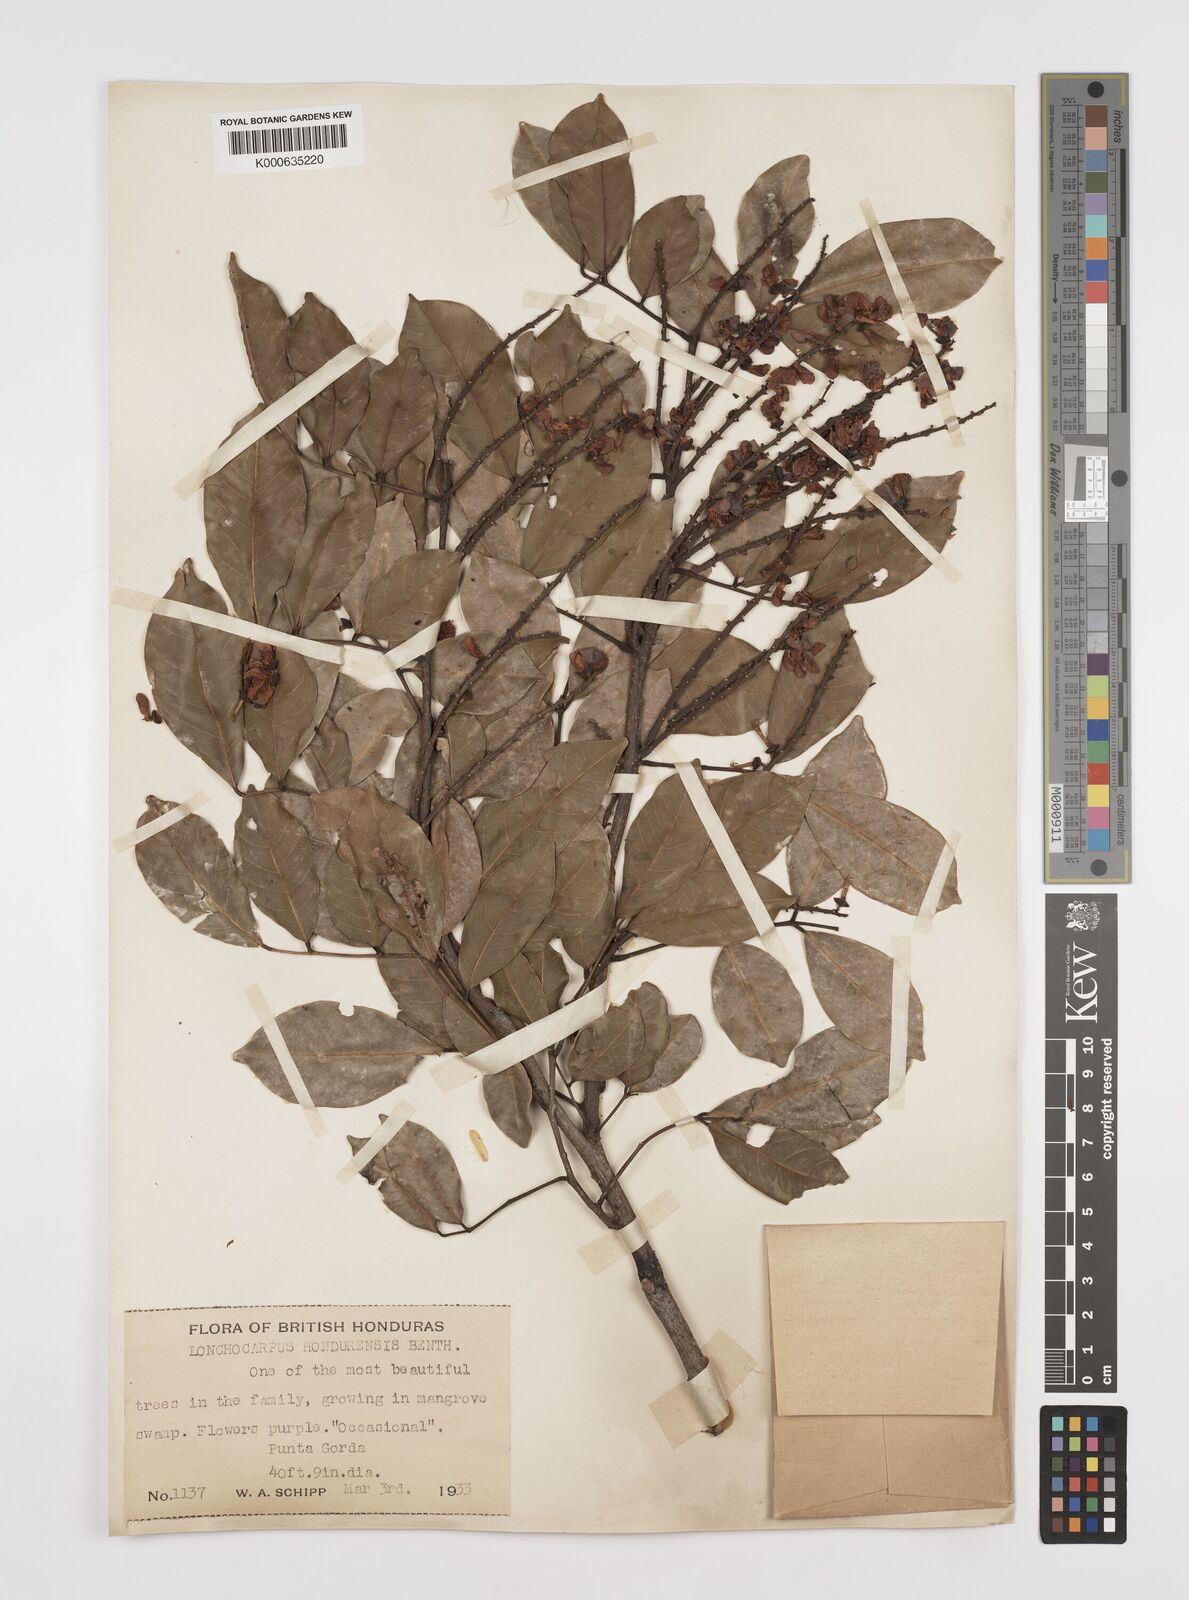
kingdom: Plantae
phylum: Tracheophyta
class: Magnoliopsida
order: Fabales
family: Fabaceae
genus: Lonchocarpus
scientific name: Lonchocarpus hondurensis
